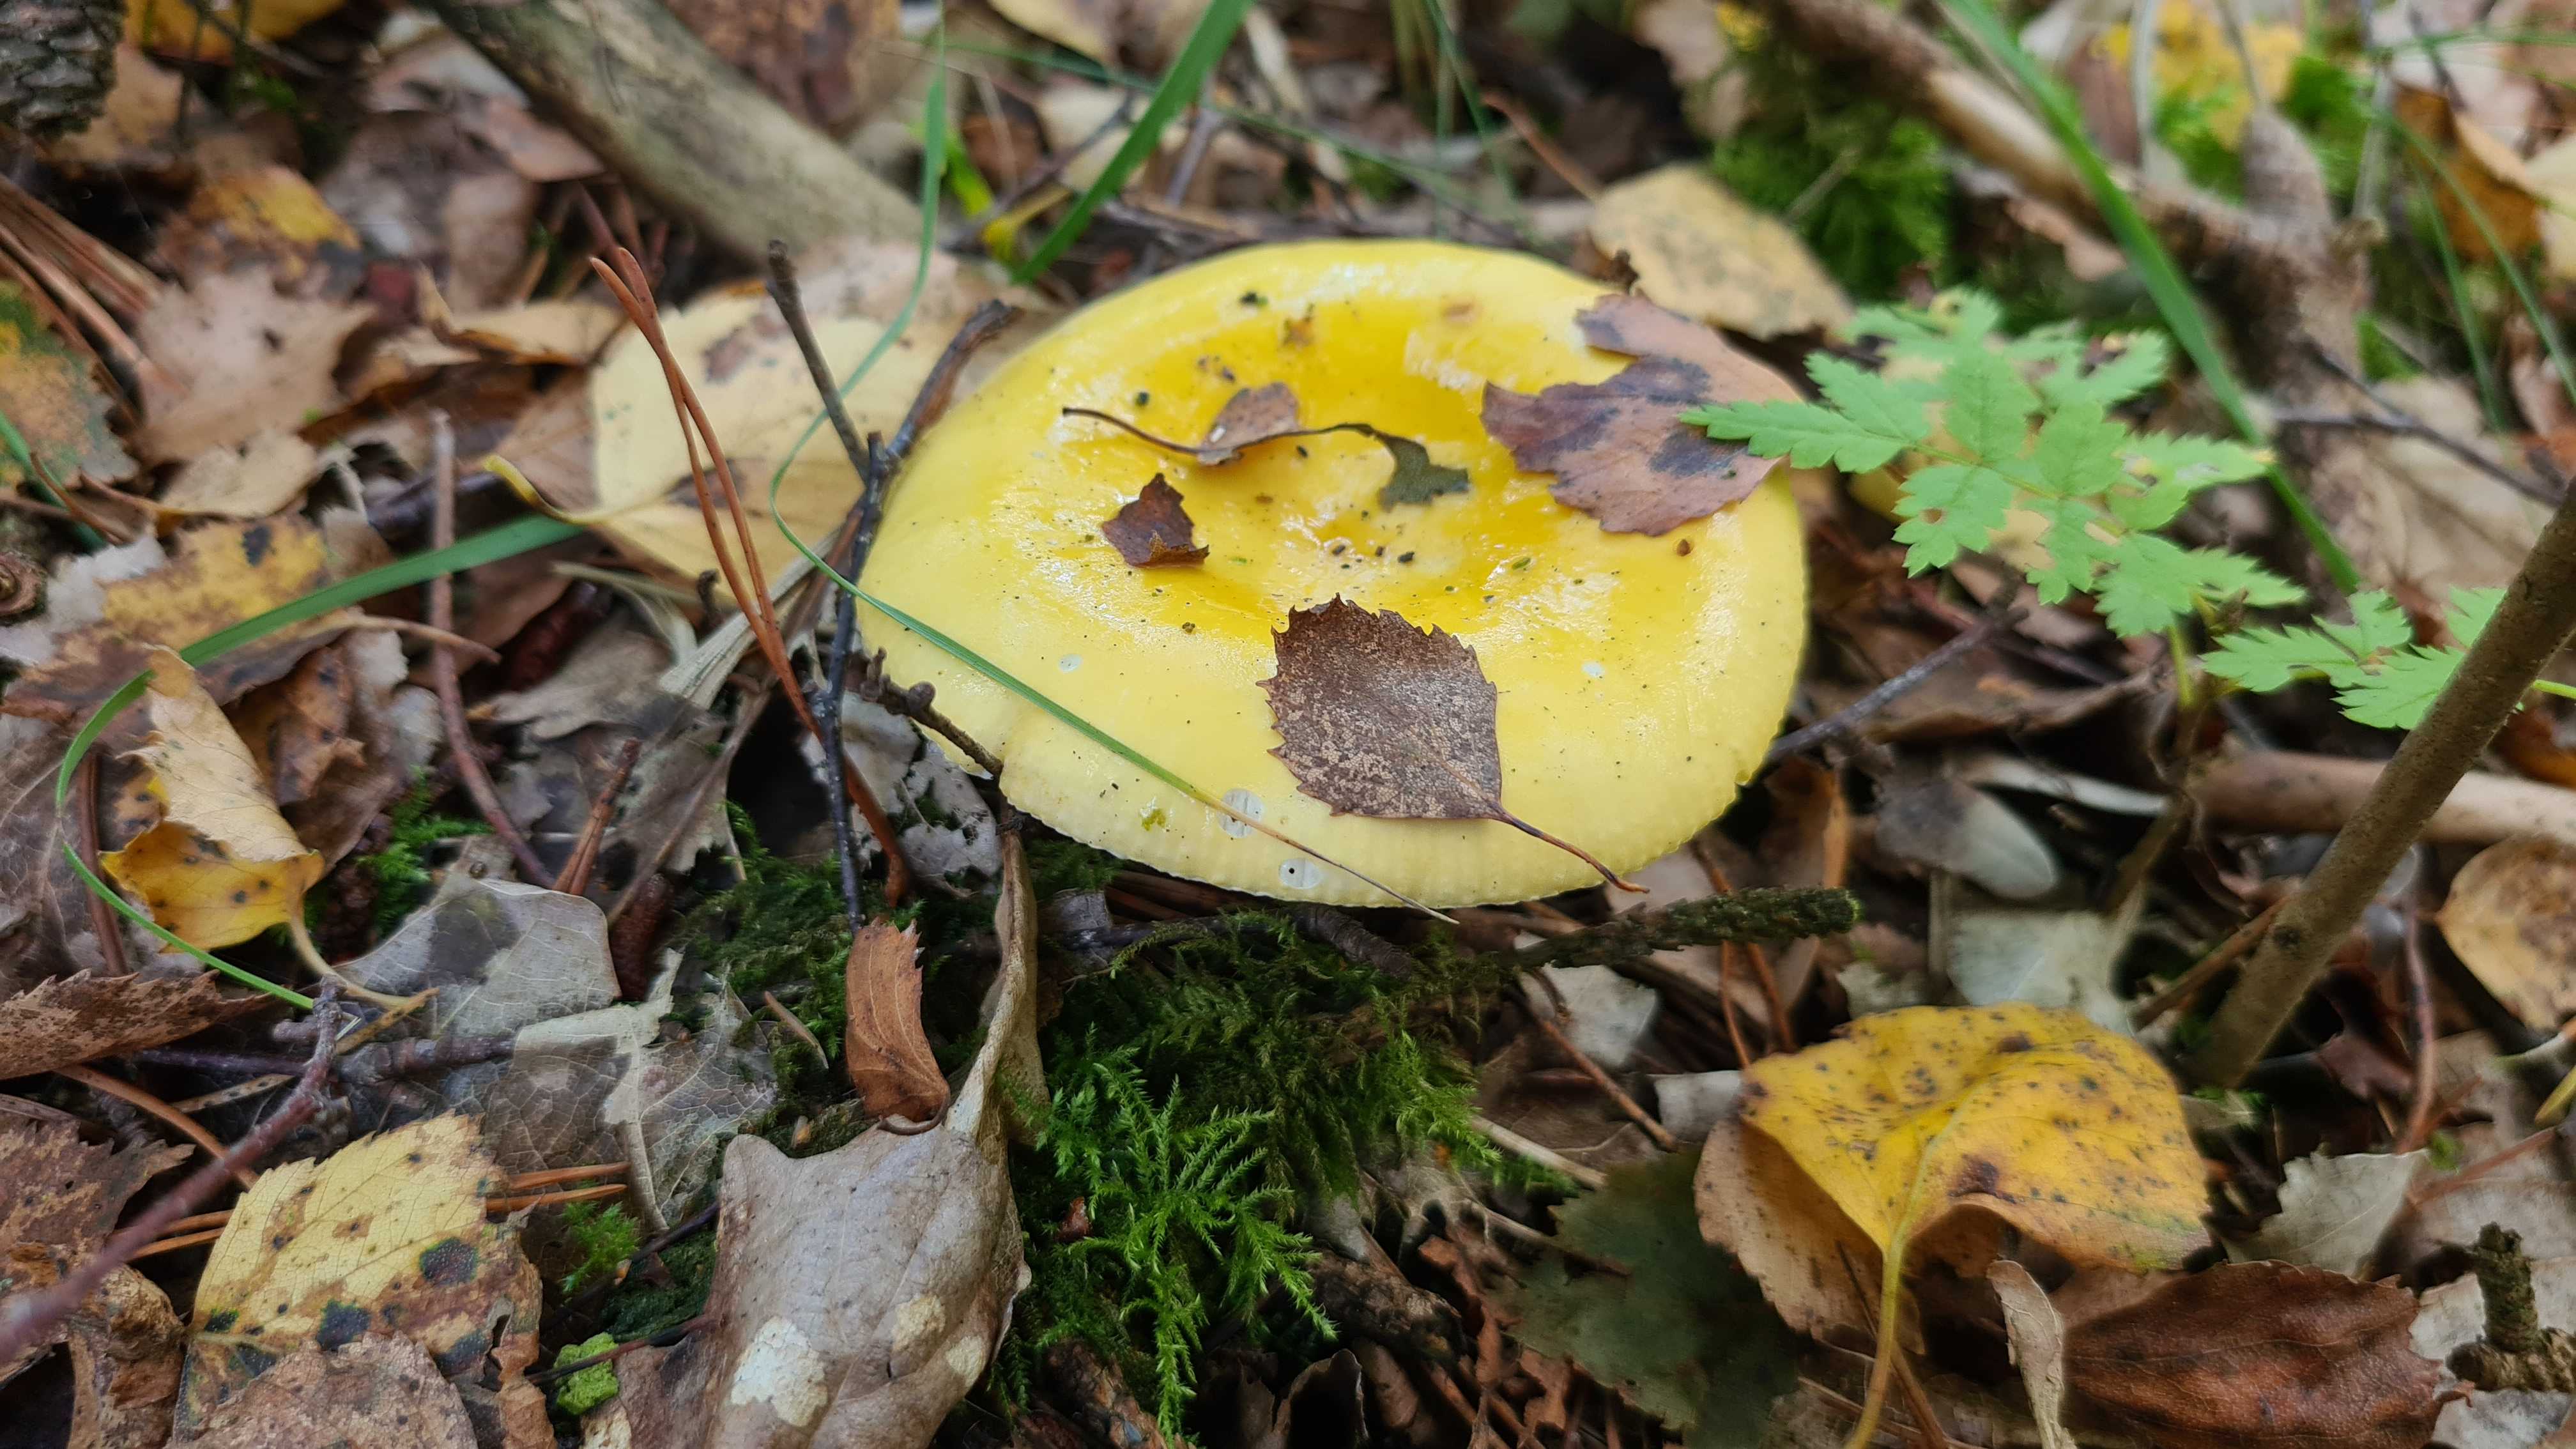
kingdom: Fungi
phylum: Basidiomycota
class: Agaricomycetes
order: Russulales
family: Russulaceae
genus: Russula
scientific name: Russula claroflava
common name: birke-skørhat
